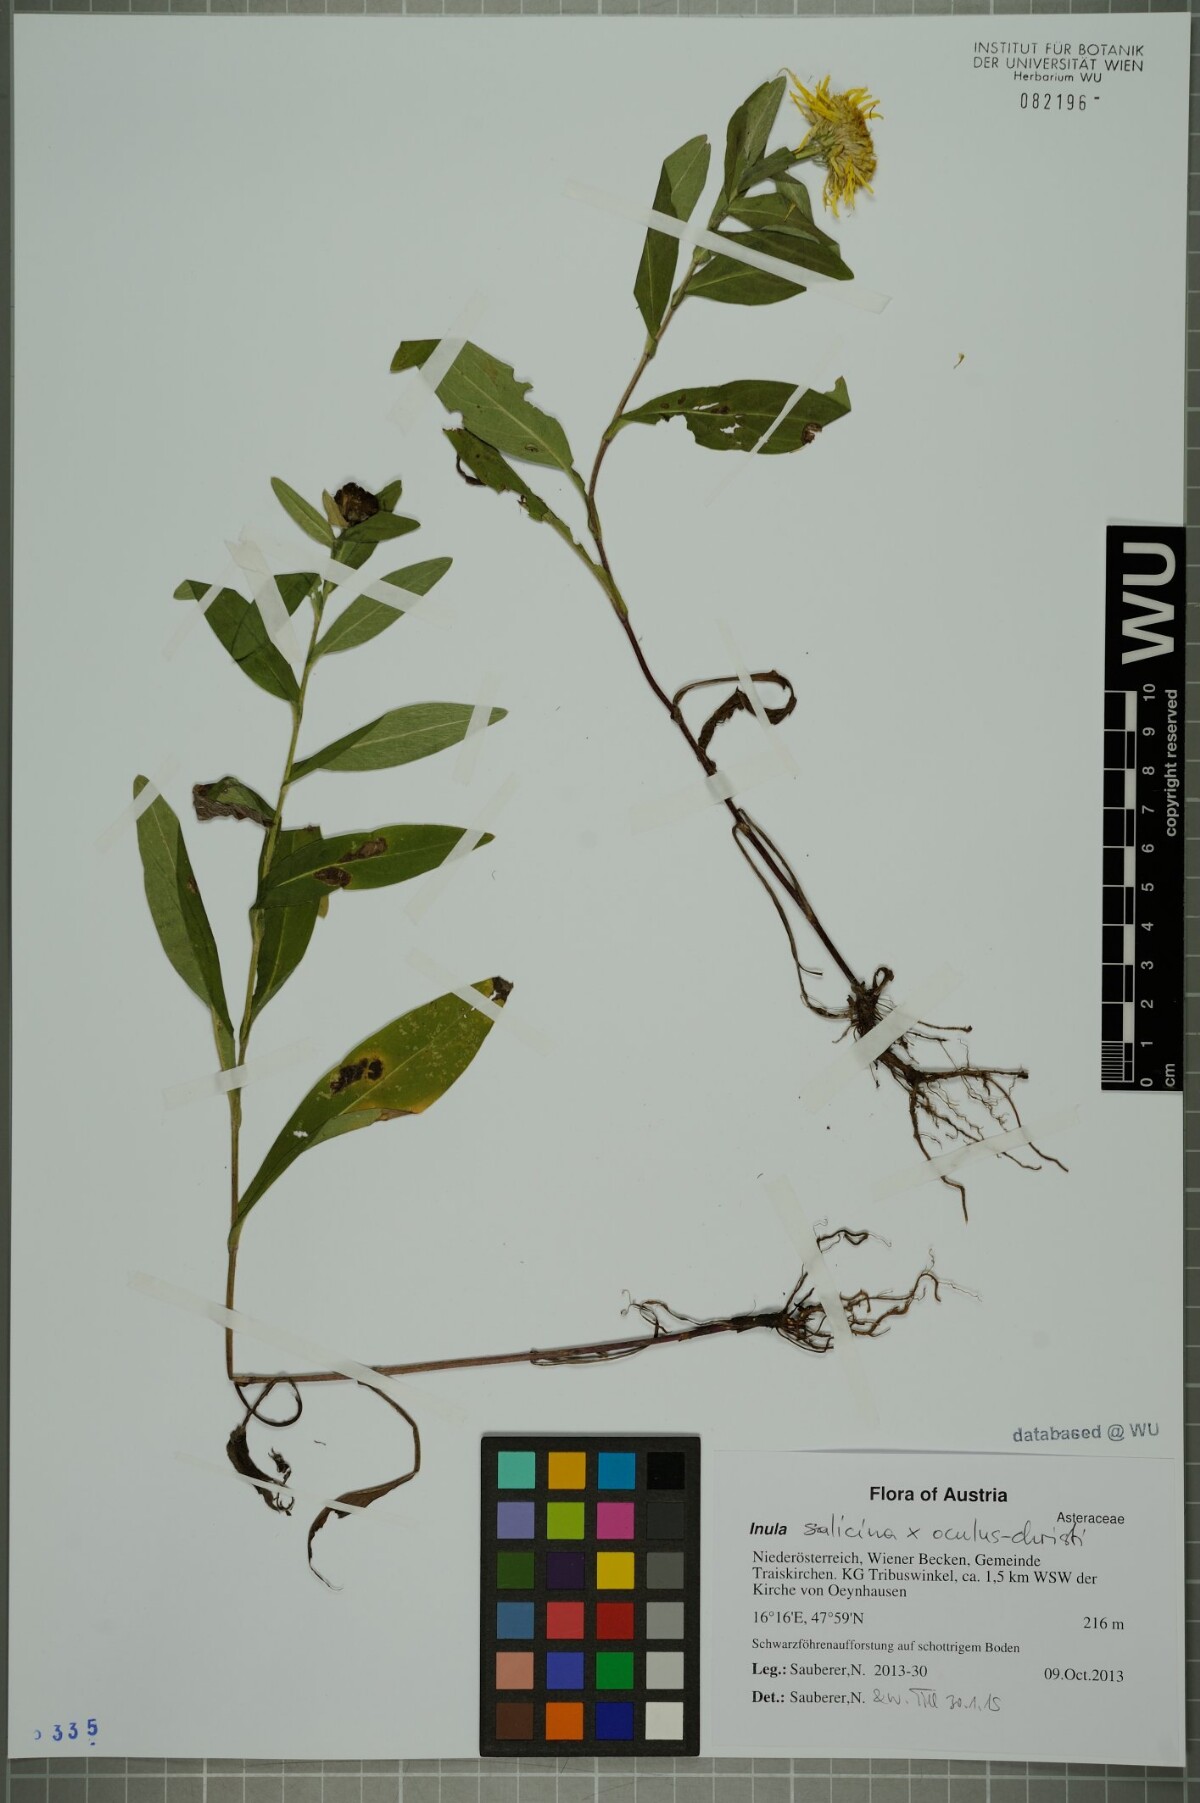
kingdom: Plantae
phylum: Tracheophyta
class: Magnoliopsida
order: Asterales
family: Asteraceae
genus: Pentanema
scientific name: Pentanema britannicum
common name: British elecampane
